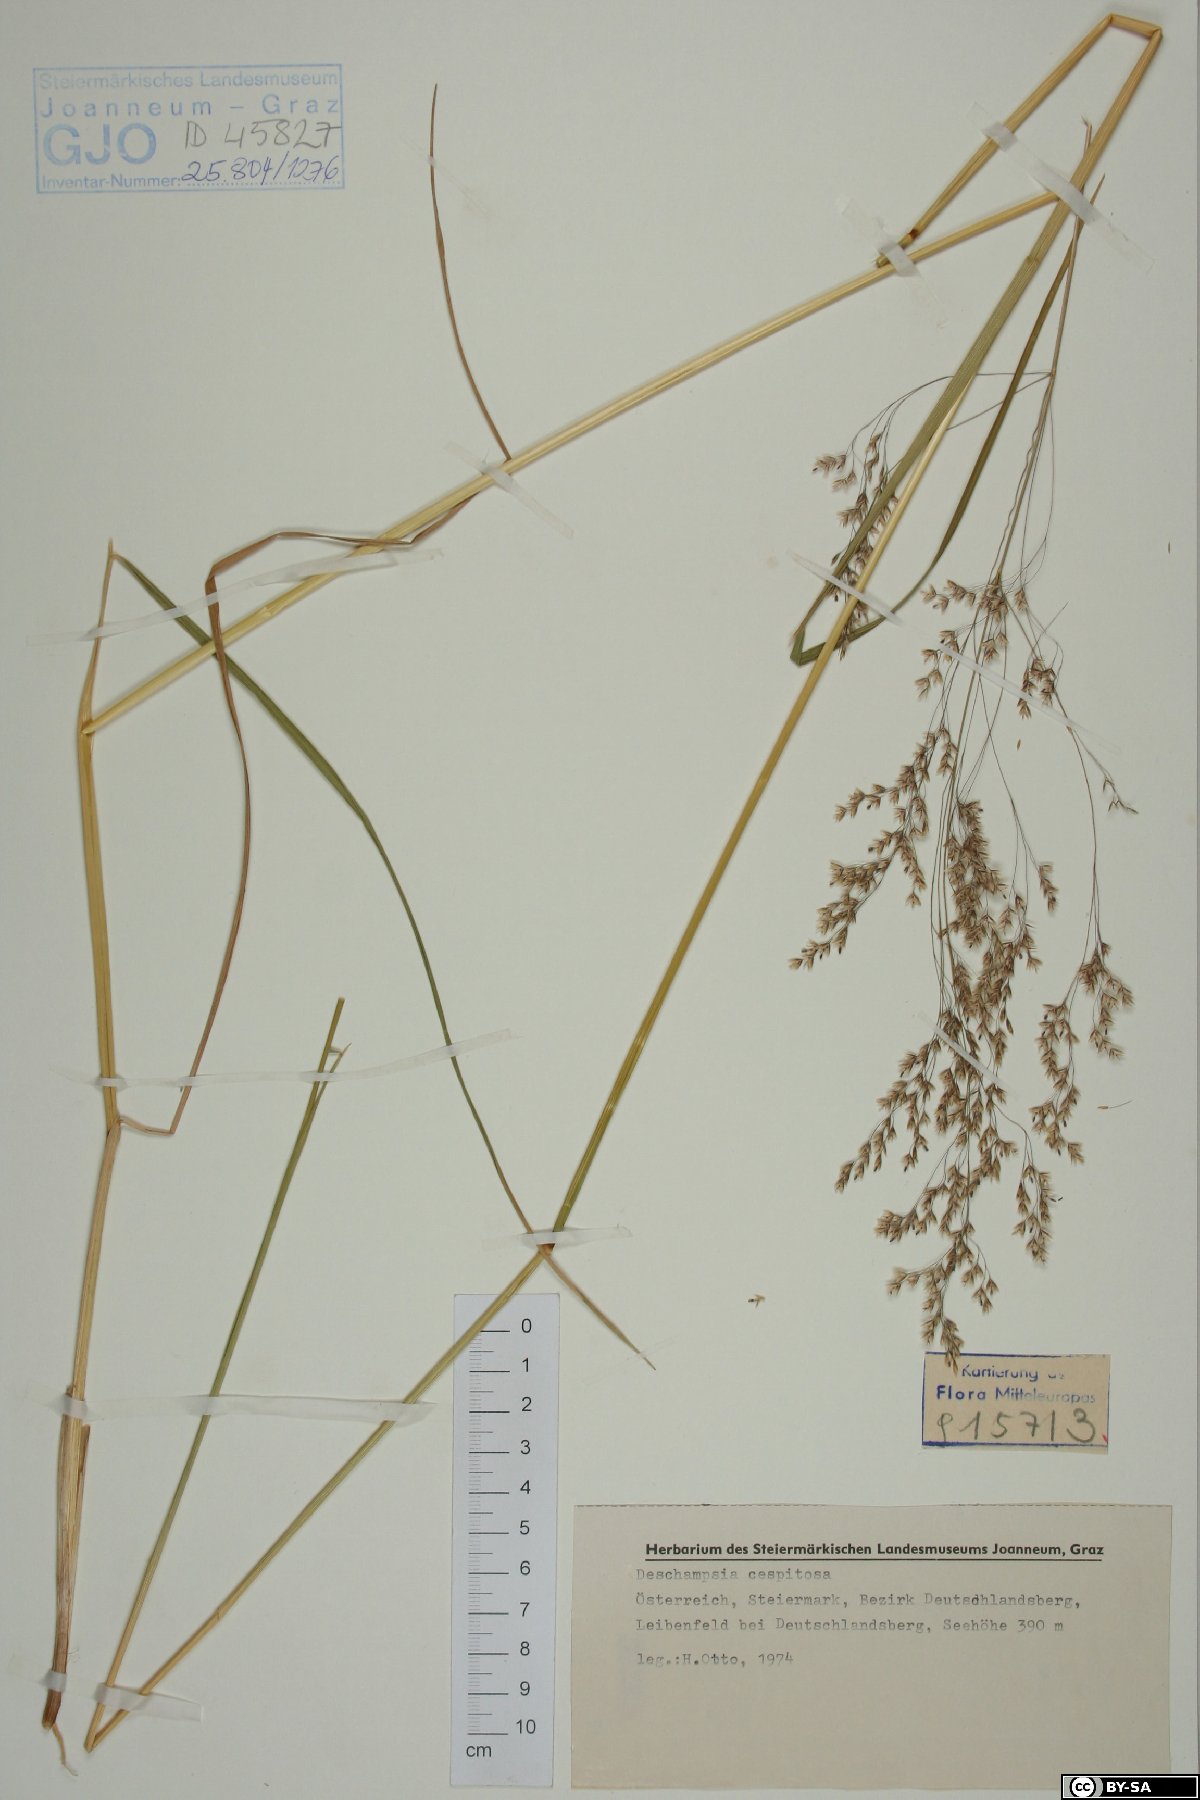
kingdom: Plantae
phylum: Tracheophyta
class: Liliopsida
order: Poales
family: Poaceae
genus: Deschampsia
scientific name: Deschampsia cespitosa
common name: Tufted hair-grass
